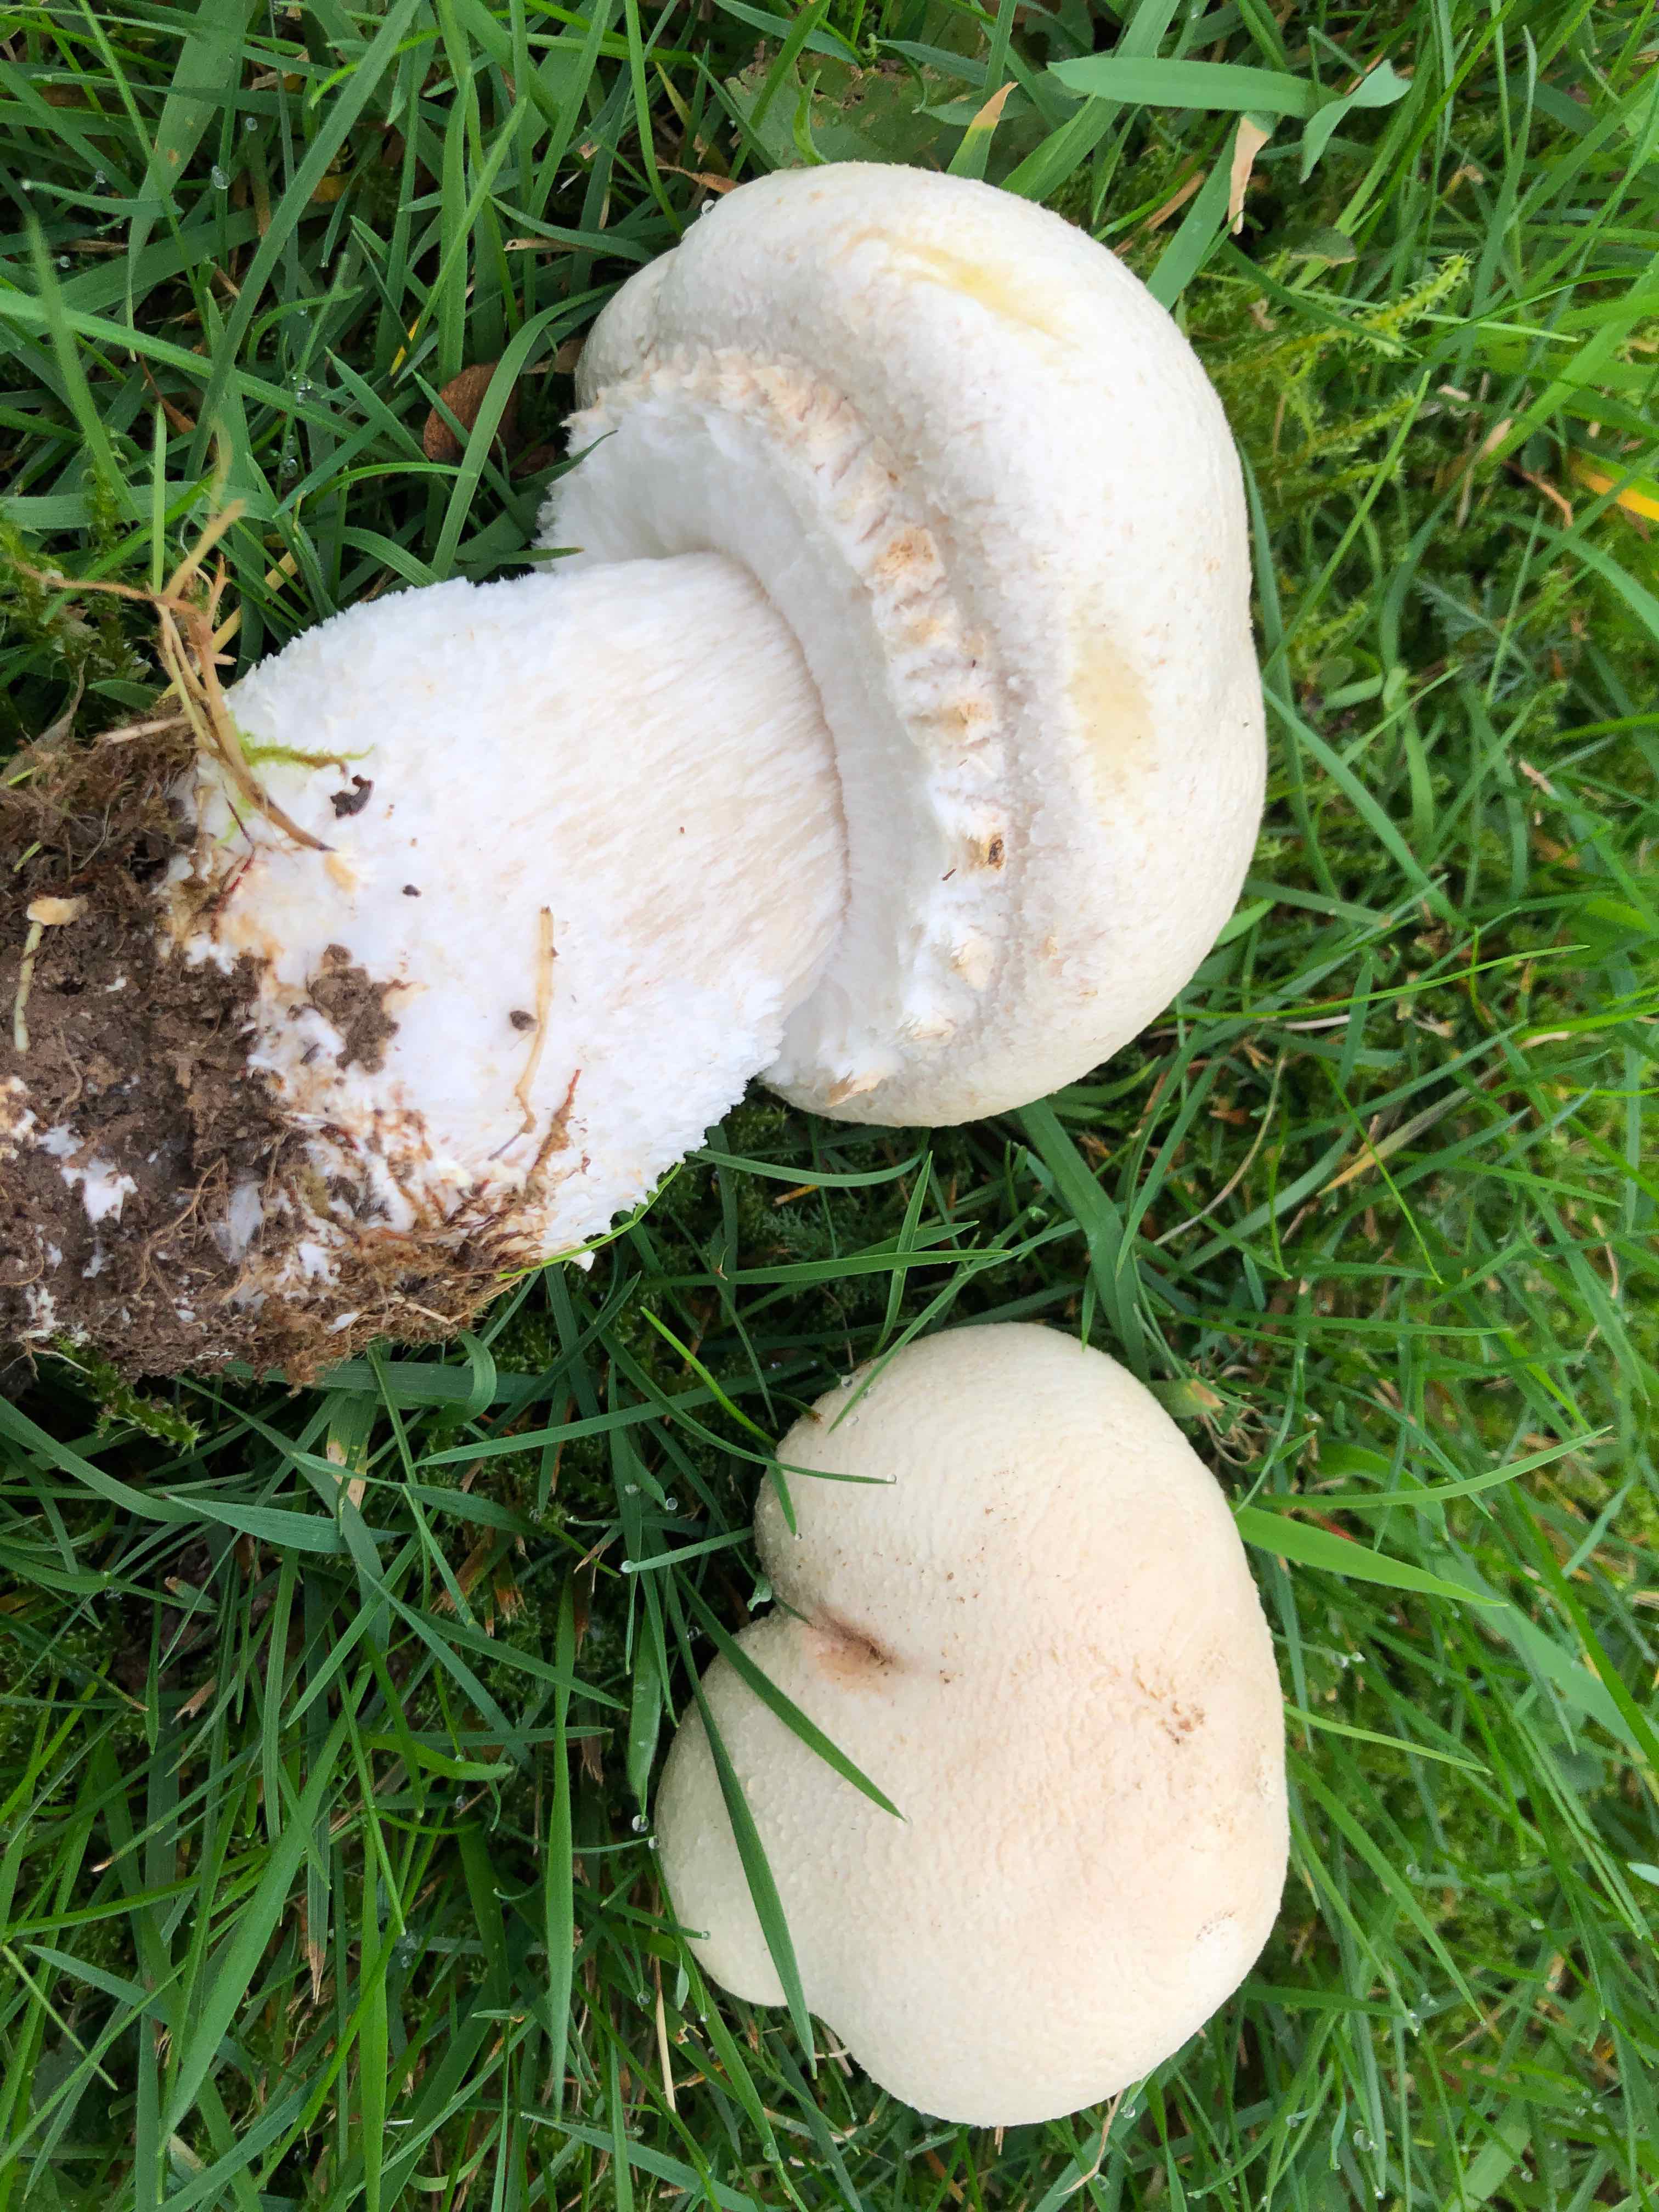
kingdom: Fungi
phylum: Basidiomycota
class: Agaricomycetes
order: Agaricales
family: Agaricaceae
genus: Agaricus
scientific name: Agaricus arvensis
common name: ager-champignon
